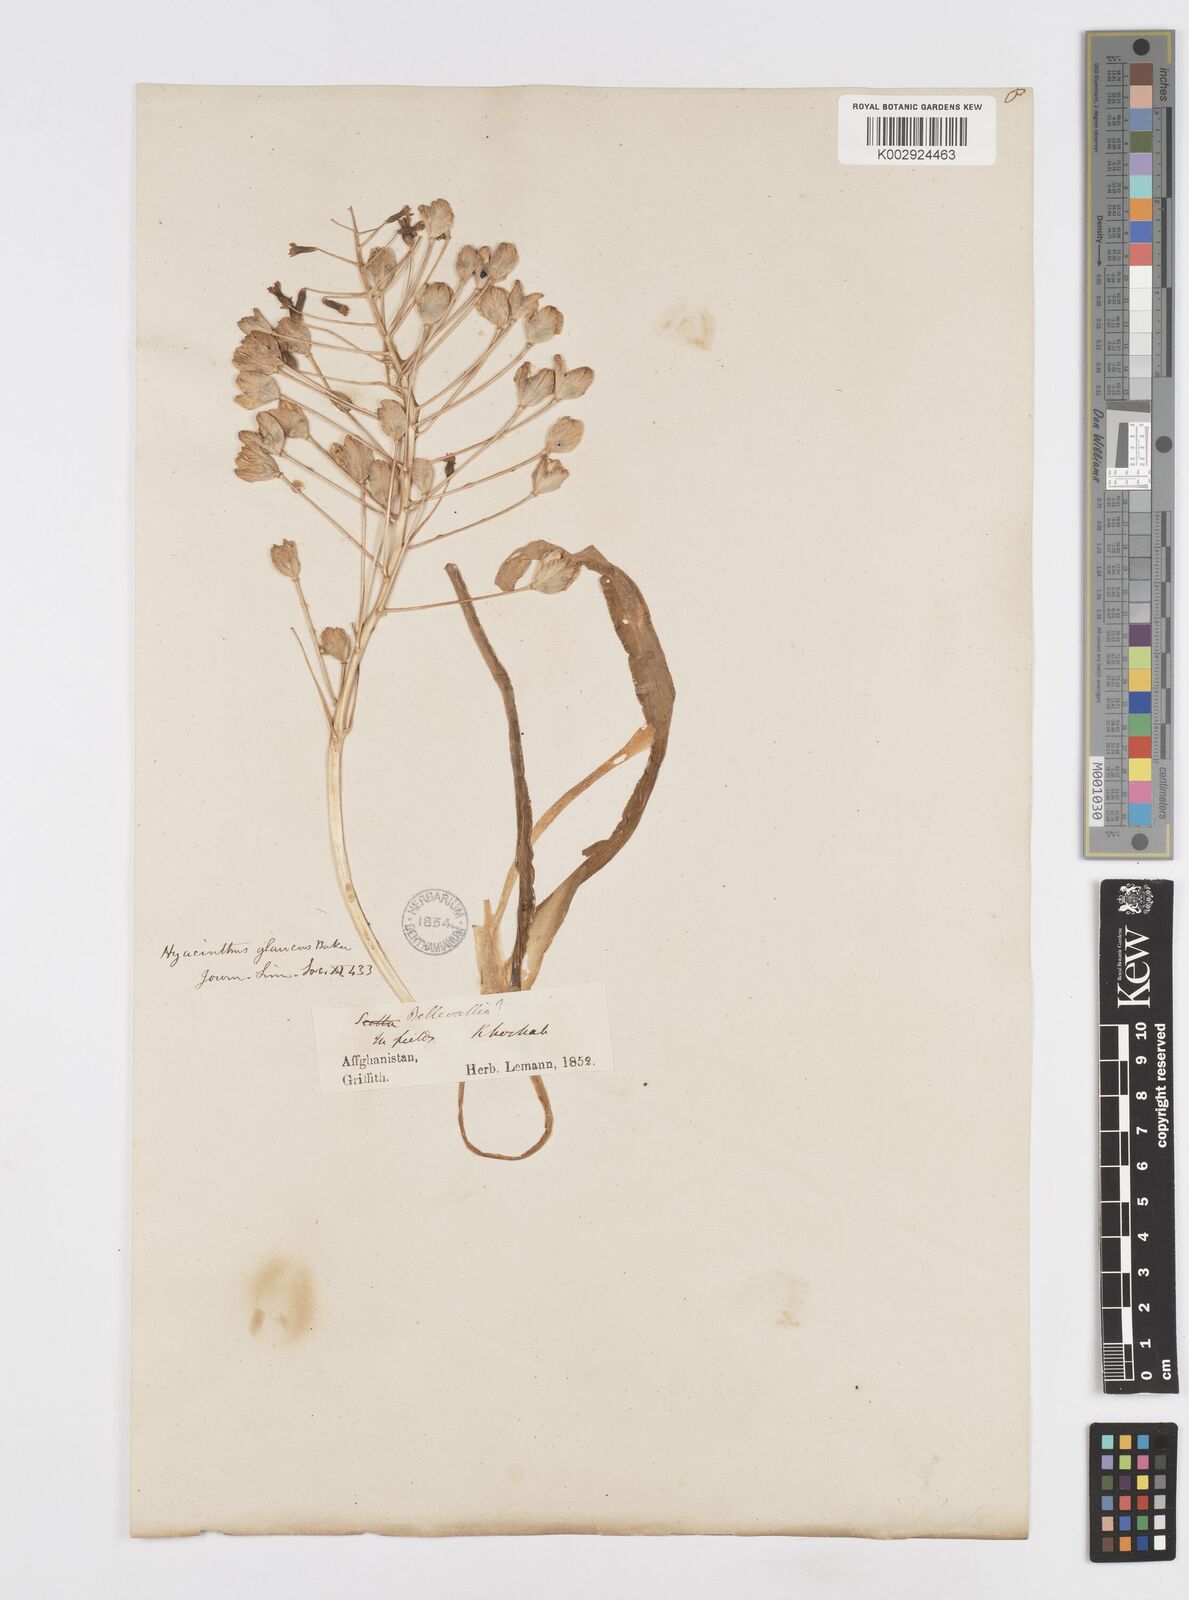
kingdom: Plantae
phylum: Tracheophyta
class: Liliopsida
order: Asparagales
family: Asparagaceae
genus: Bellevalia
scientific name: Bellevalia saviczii
